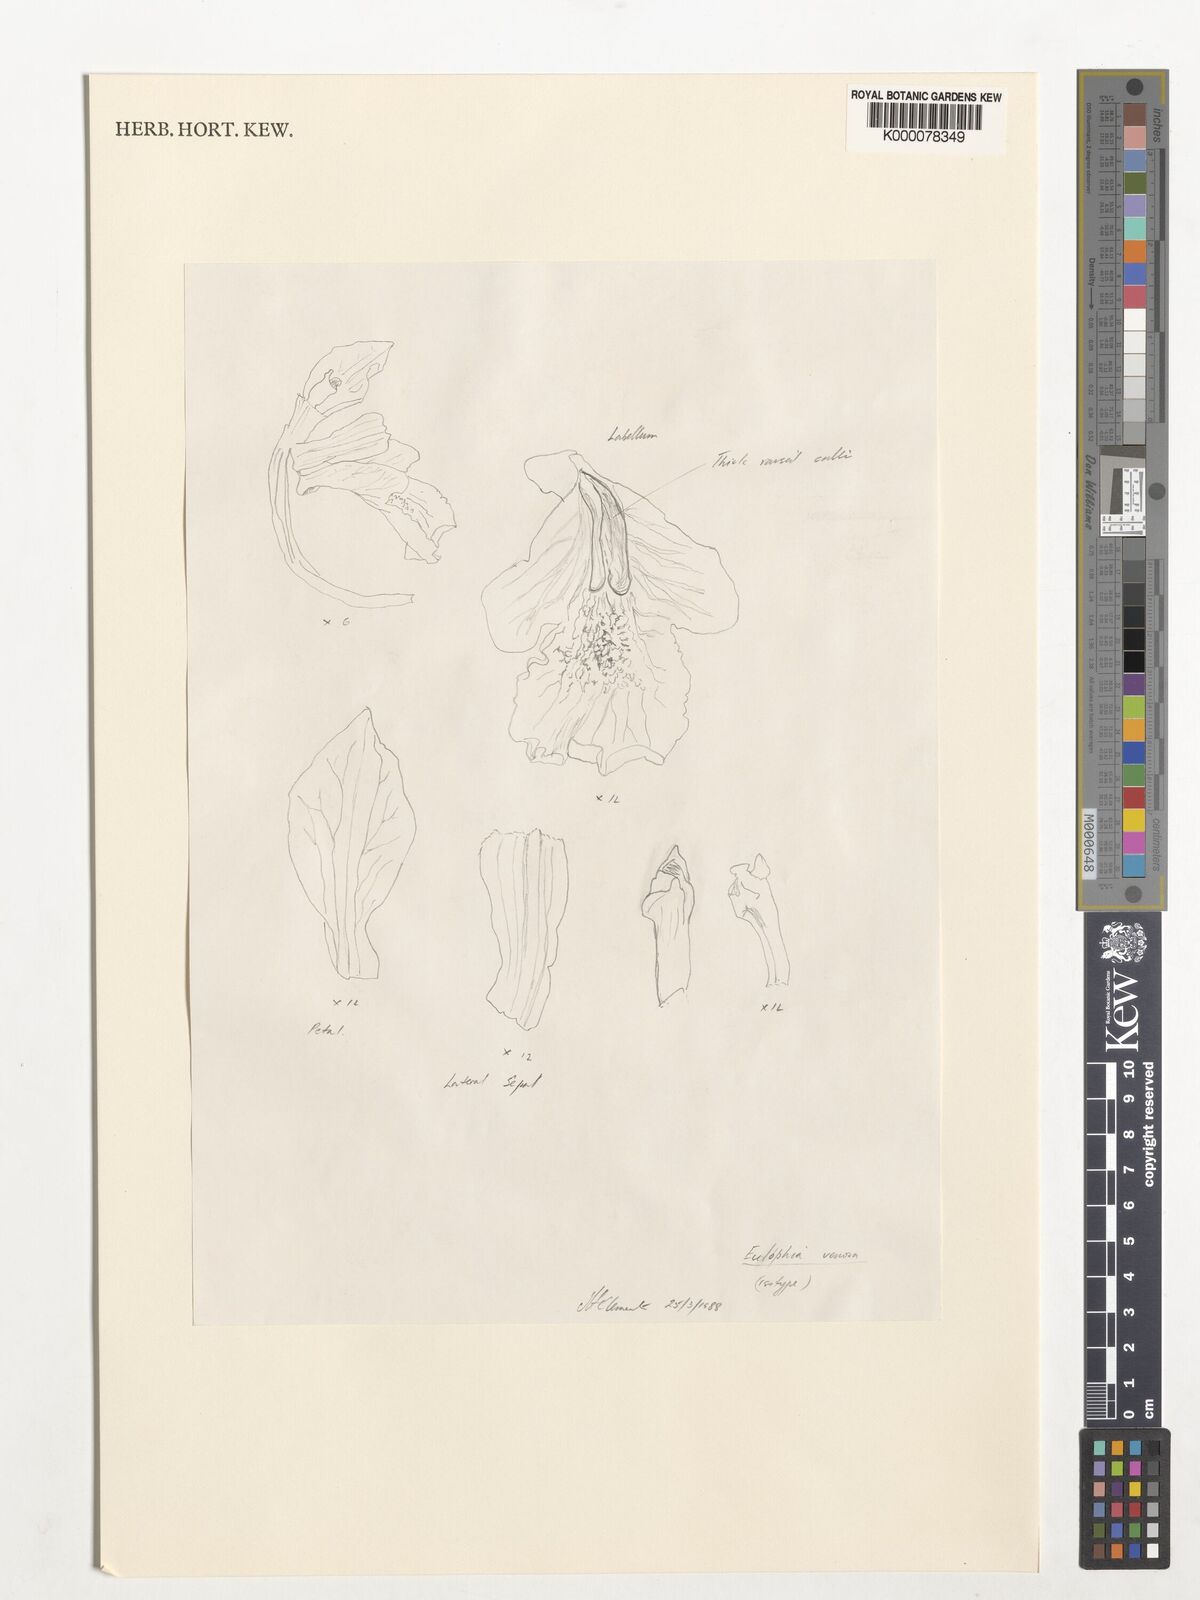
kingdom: Plantae
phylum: Tracheophyta
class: Liliopsida
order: Asparagales
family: Orchidaceae
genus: Eulophia
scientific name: Eulophia bicallosa
